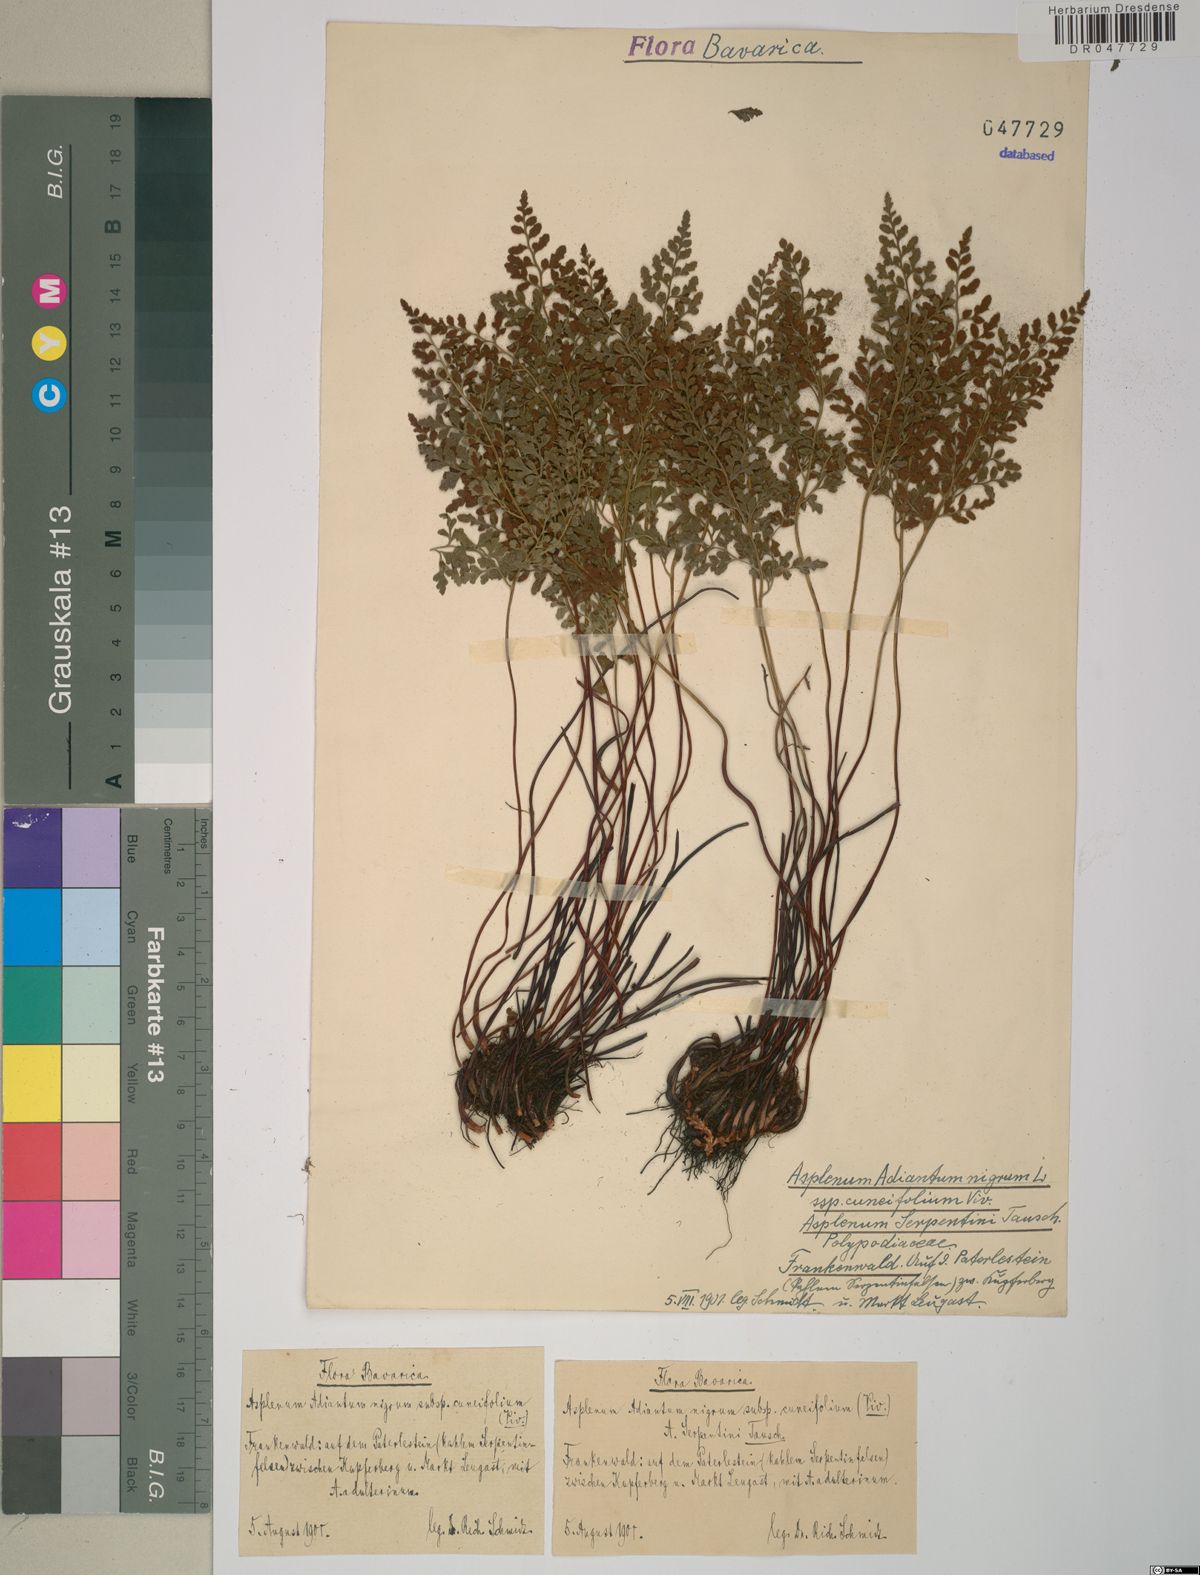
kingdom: Plantae
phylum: Tracheophyta
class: Polypodiopsida
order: Polypodiales
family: Aspleniaceae
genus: Asplenium
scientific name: Asplenium cuneifolium
